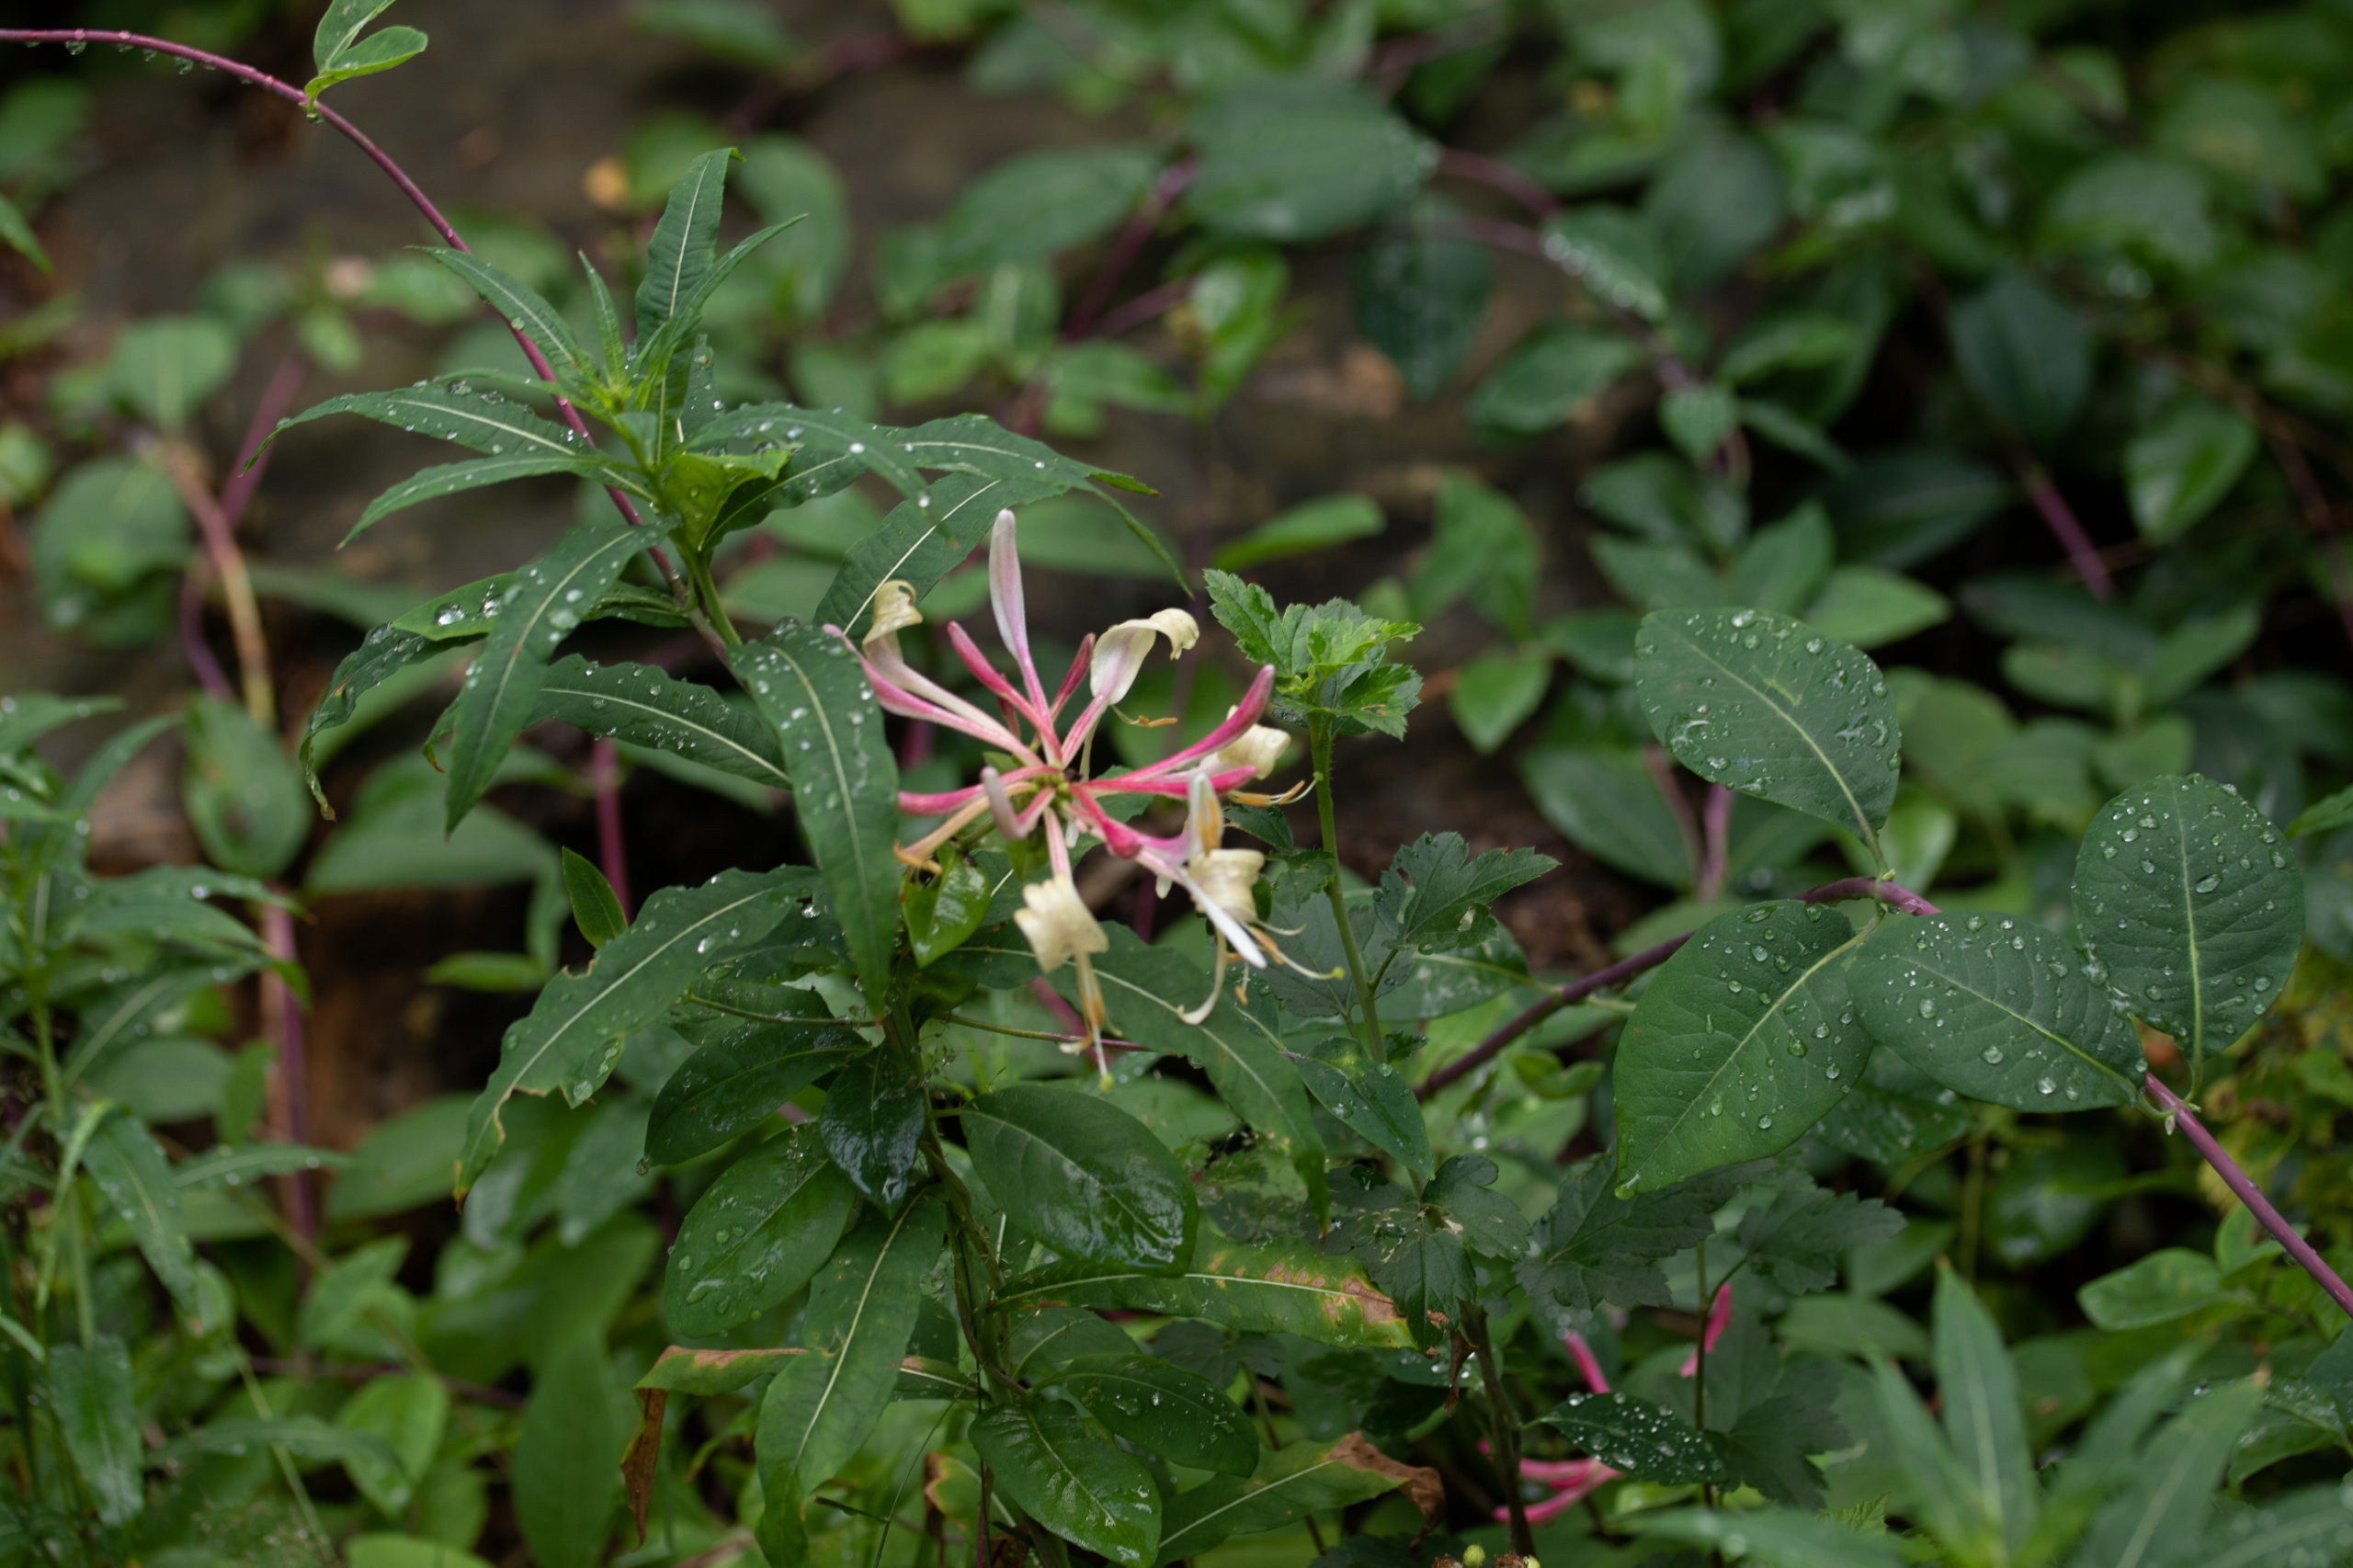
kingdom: Plantae
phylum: Tracheophyta
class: Magnoliopsida
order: Dipsacales
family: Caprifoliaceae
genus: Lonicera
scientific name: Lonicera periclymenum
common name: Almindelig gedeblad
